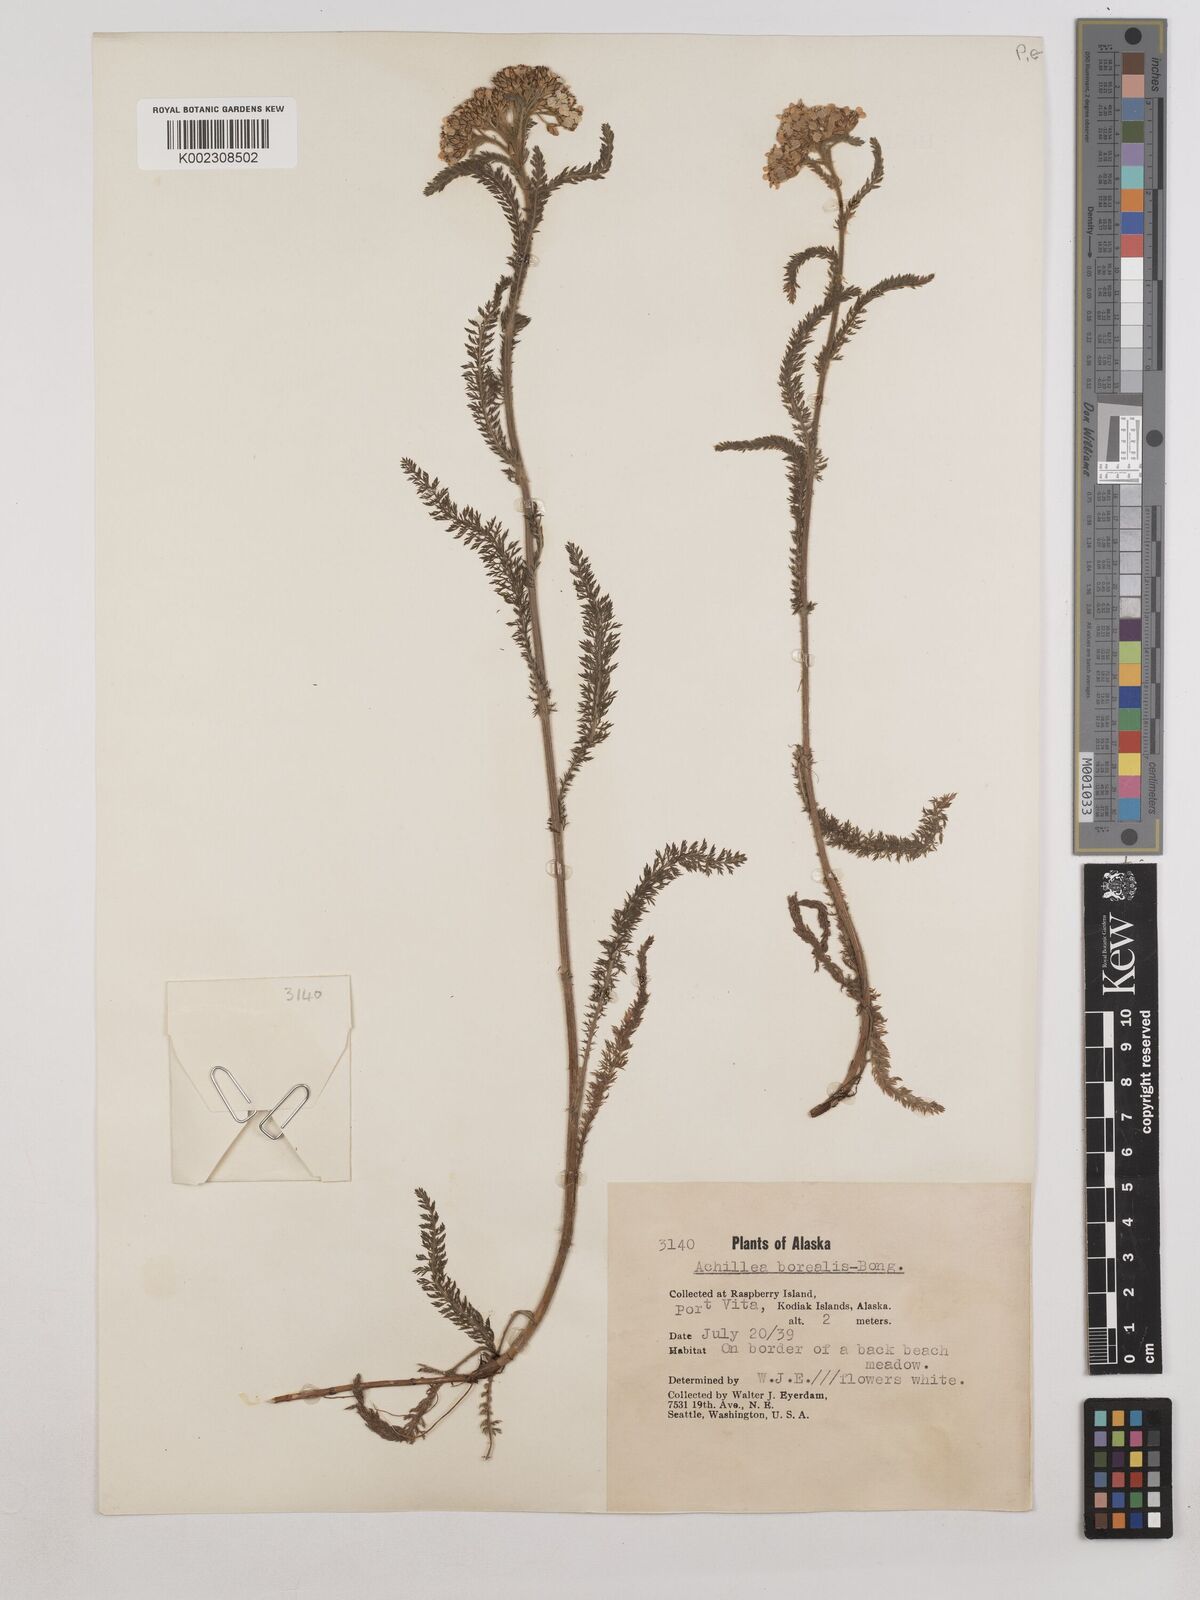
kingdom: Plantae
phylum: Tracheophyta
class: Magnoliopsida
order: Asterales
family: Asteraceae
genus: Achillea
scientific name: Achillea millefolium
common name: Yarrow
